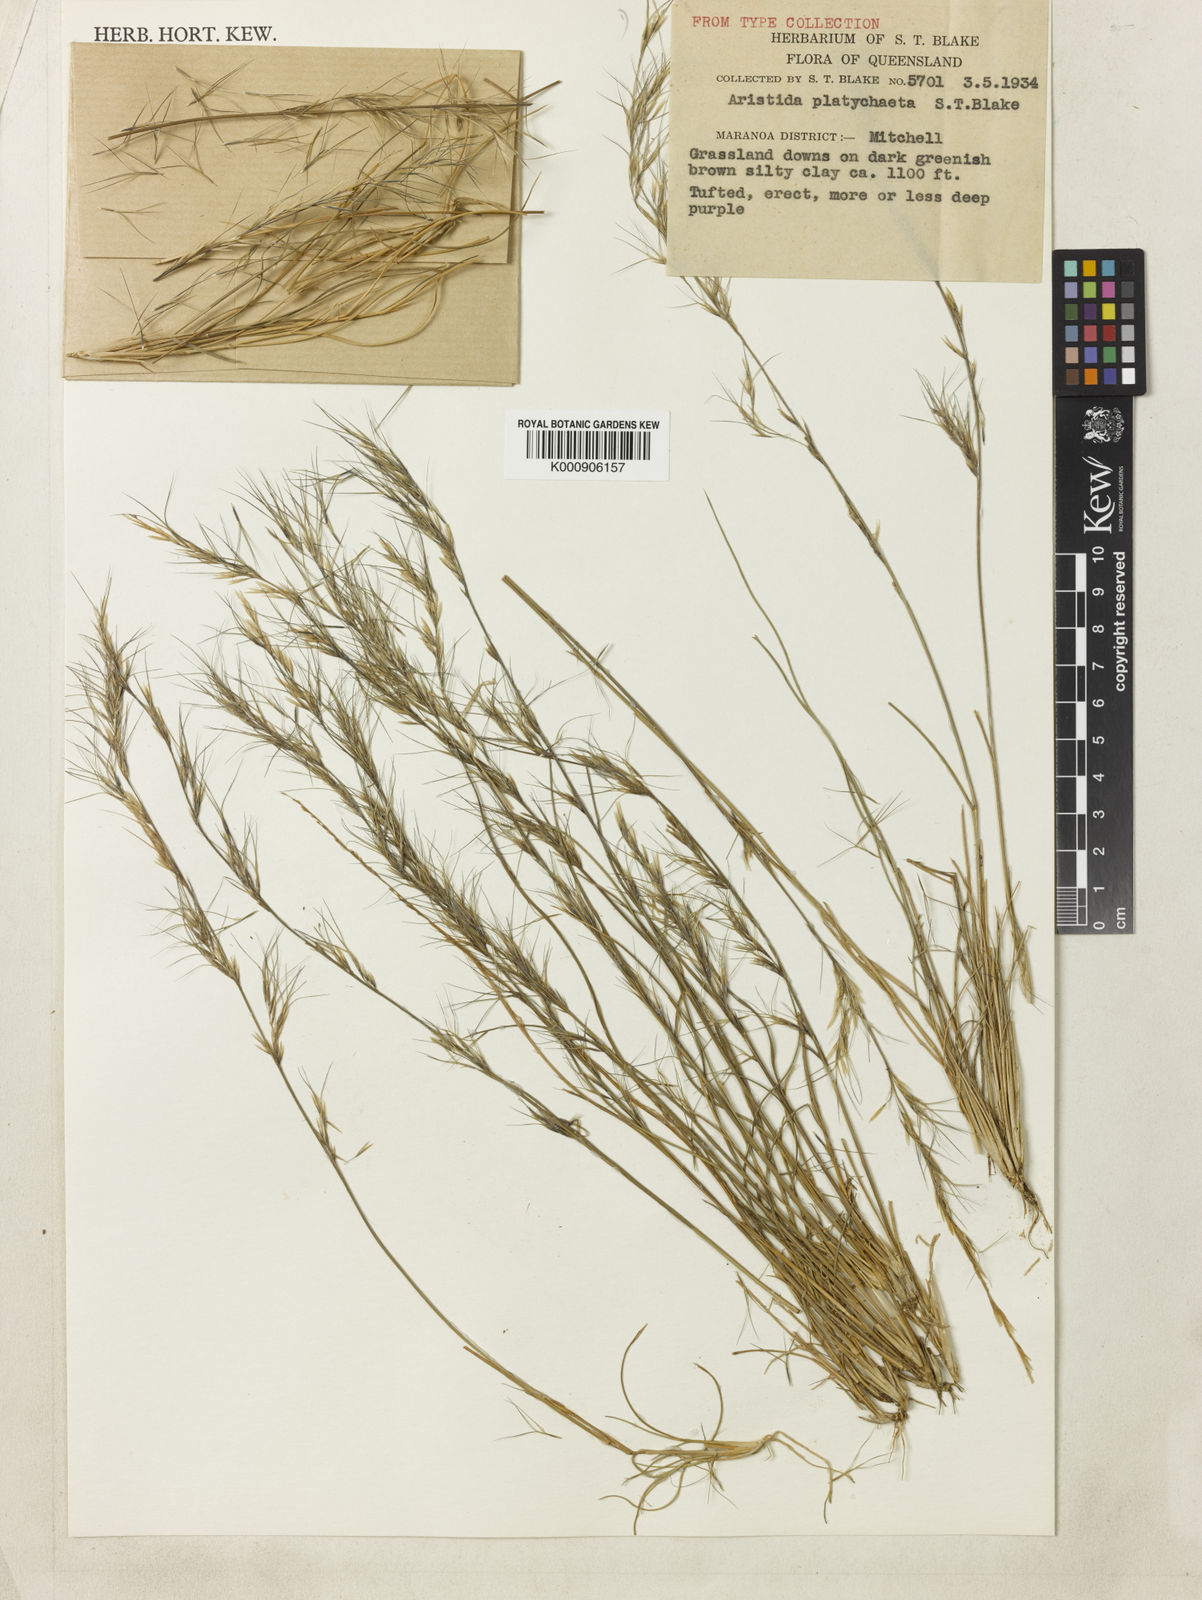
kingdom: Plantae
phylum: Tracheophyta
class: Liliopsida
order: Poales
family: Poaceae
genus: Aristida
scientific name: Aristida platychaeta
